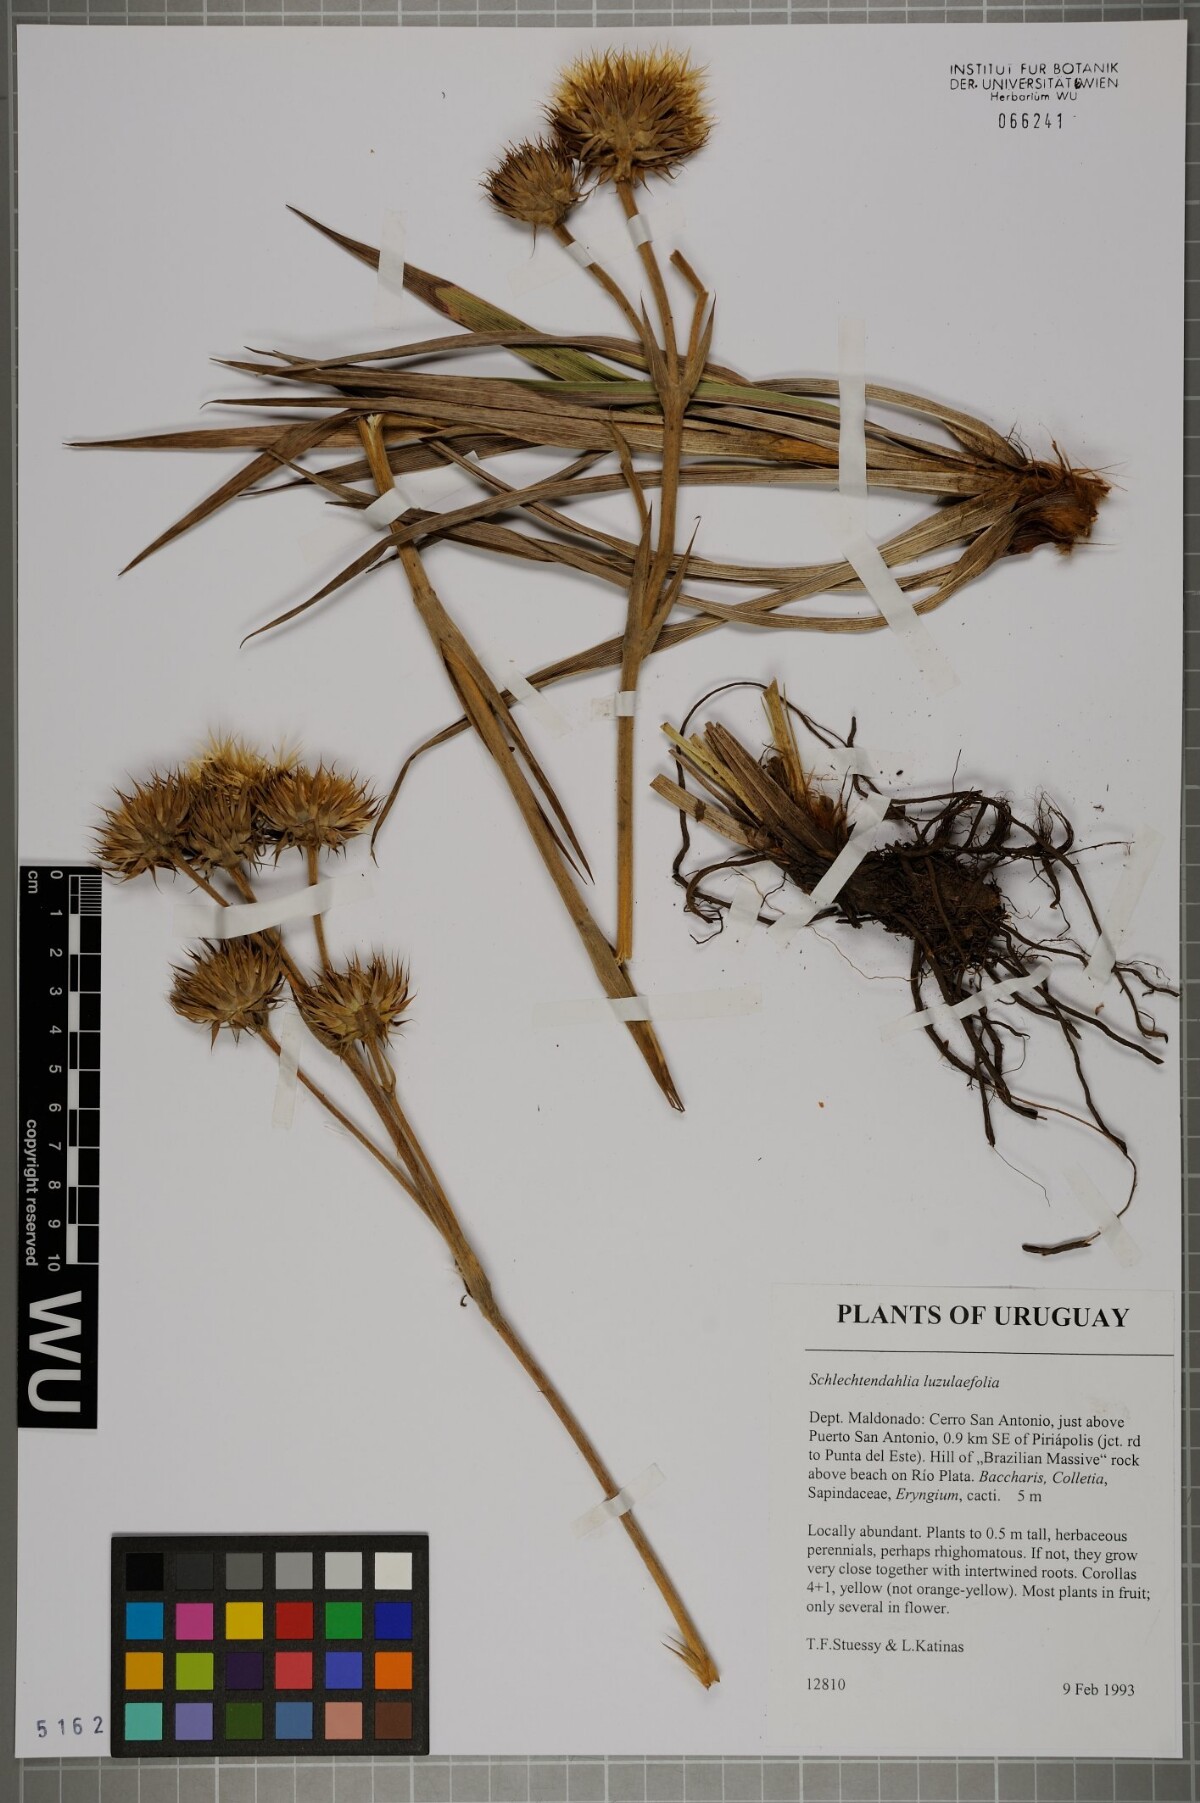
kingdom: Plantae
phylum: Tracheophyta
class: Magnoliopsida
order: Asterales
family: Asteraceae
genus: Schlechtendalia
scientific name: Schlechtendalia luzulifolia
